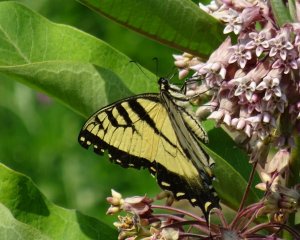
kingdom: Animalia
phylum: Arthropoda
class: Insecta
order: Lepidoptera
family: Papilionidae
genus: Pterourus
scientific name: Pterourus glaucus
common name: Eastern Tiger Swallowtail
